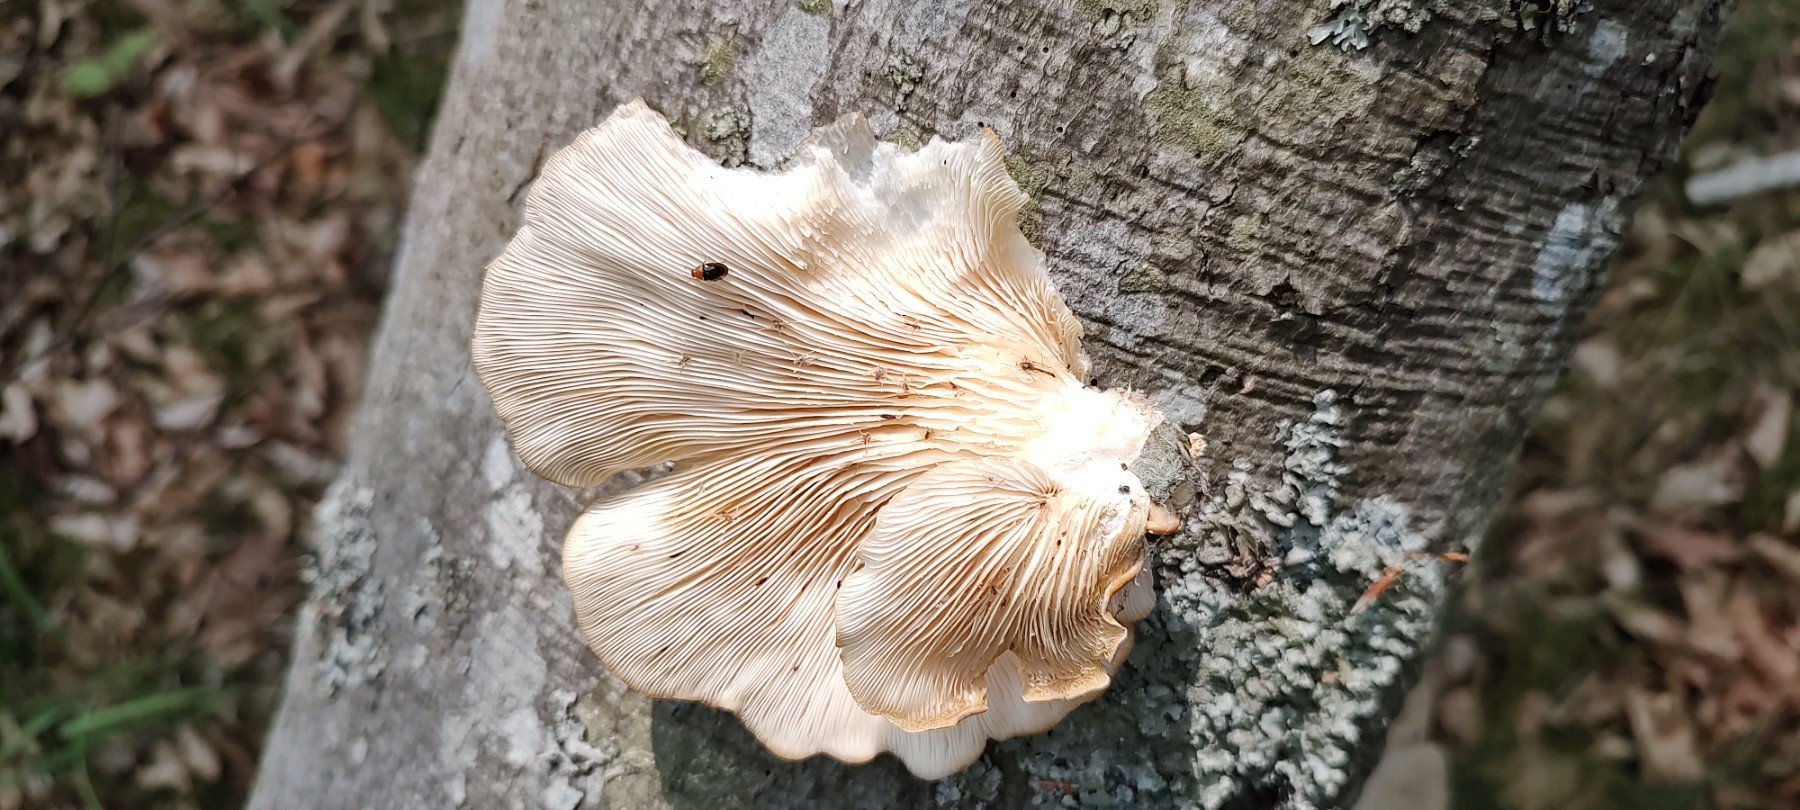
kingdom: Fungi
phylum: Basidiomycota
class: Agaricomycetes
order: Agaricales
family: Pleurotaceae
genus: Pleurotus
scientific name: Pleurotus pulmonarius
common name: sommer-østershat
